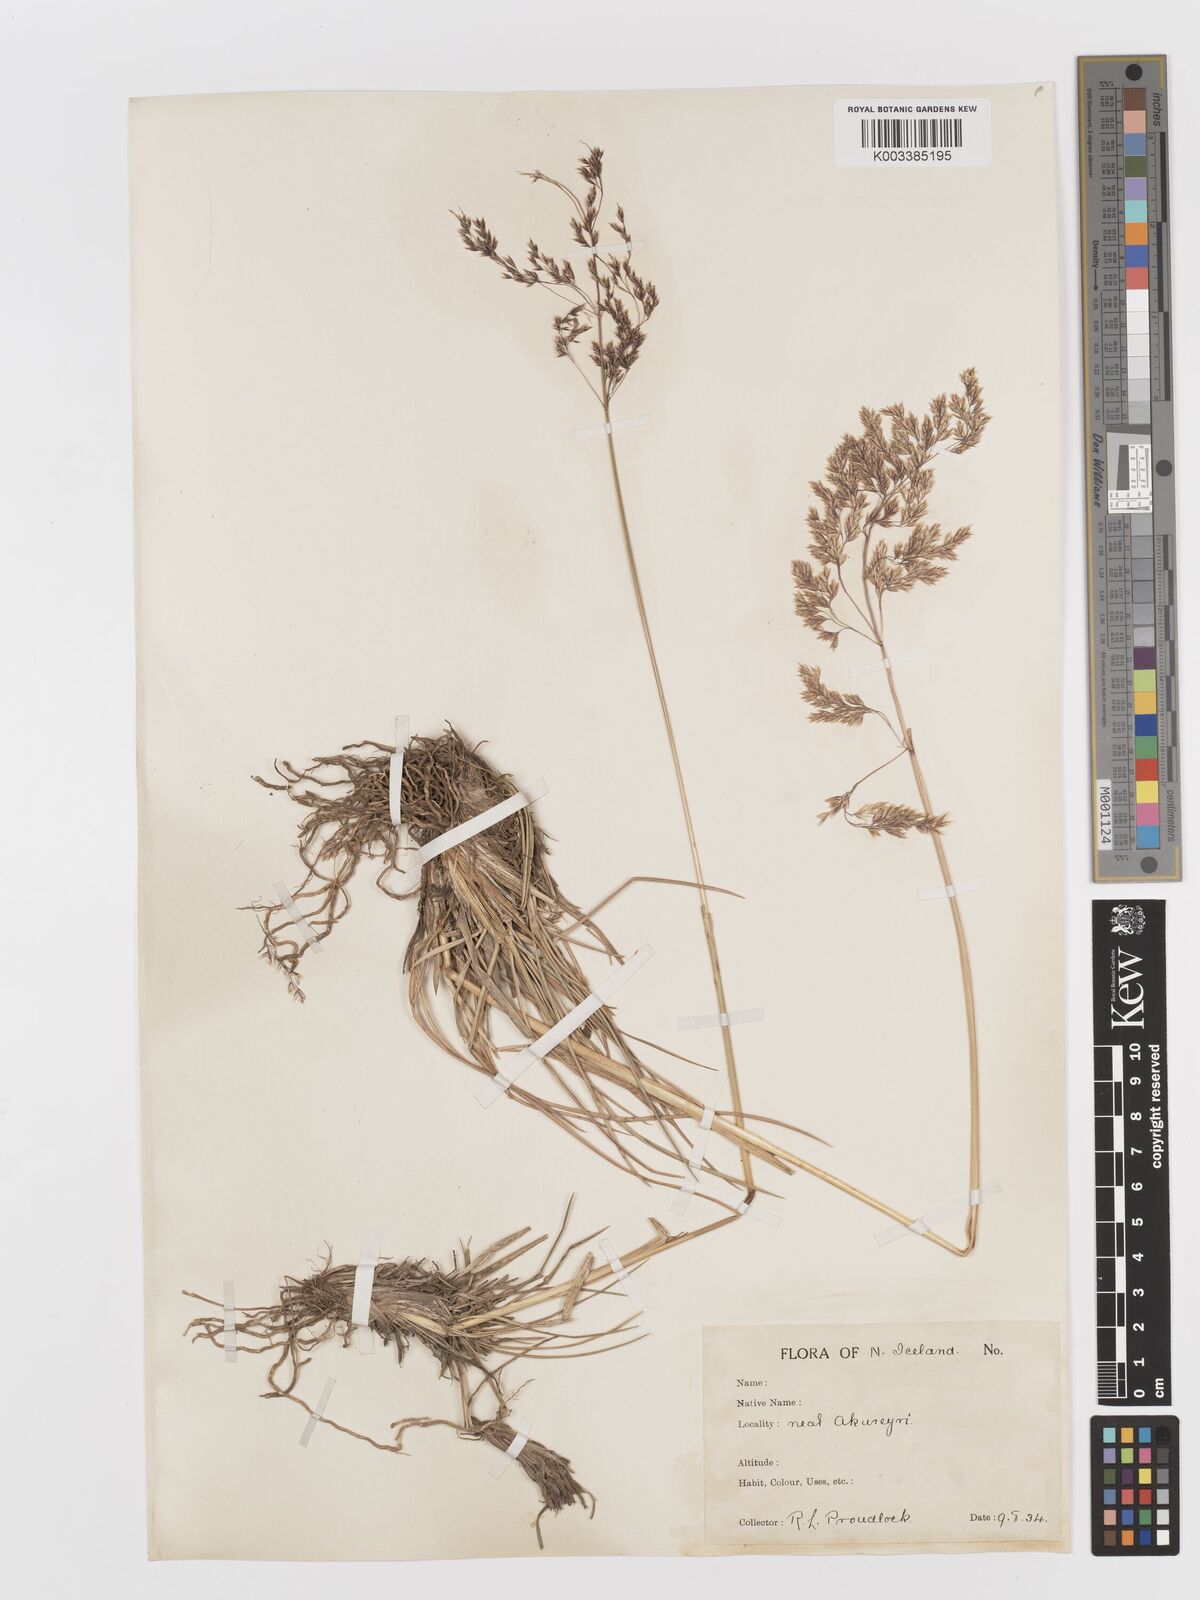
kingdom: Plantae
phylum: Tracheophyta
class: Liliopsida
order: Poales
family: Poaceae
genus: Deschampsia
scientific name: Deschampsia cespitosa
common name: Tufted hair-grass
